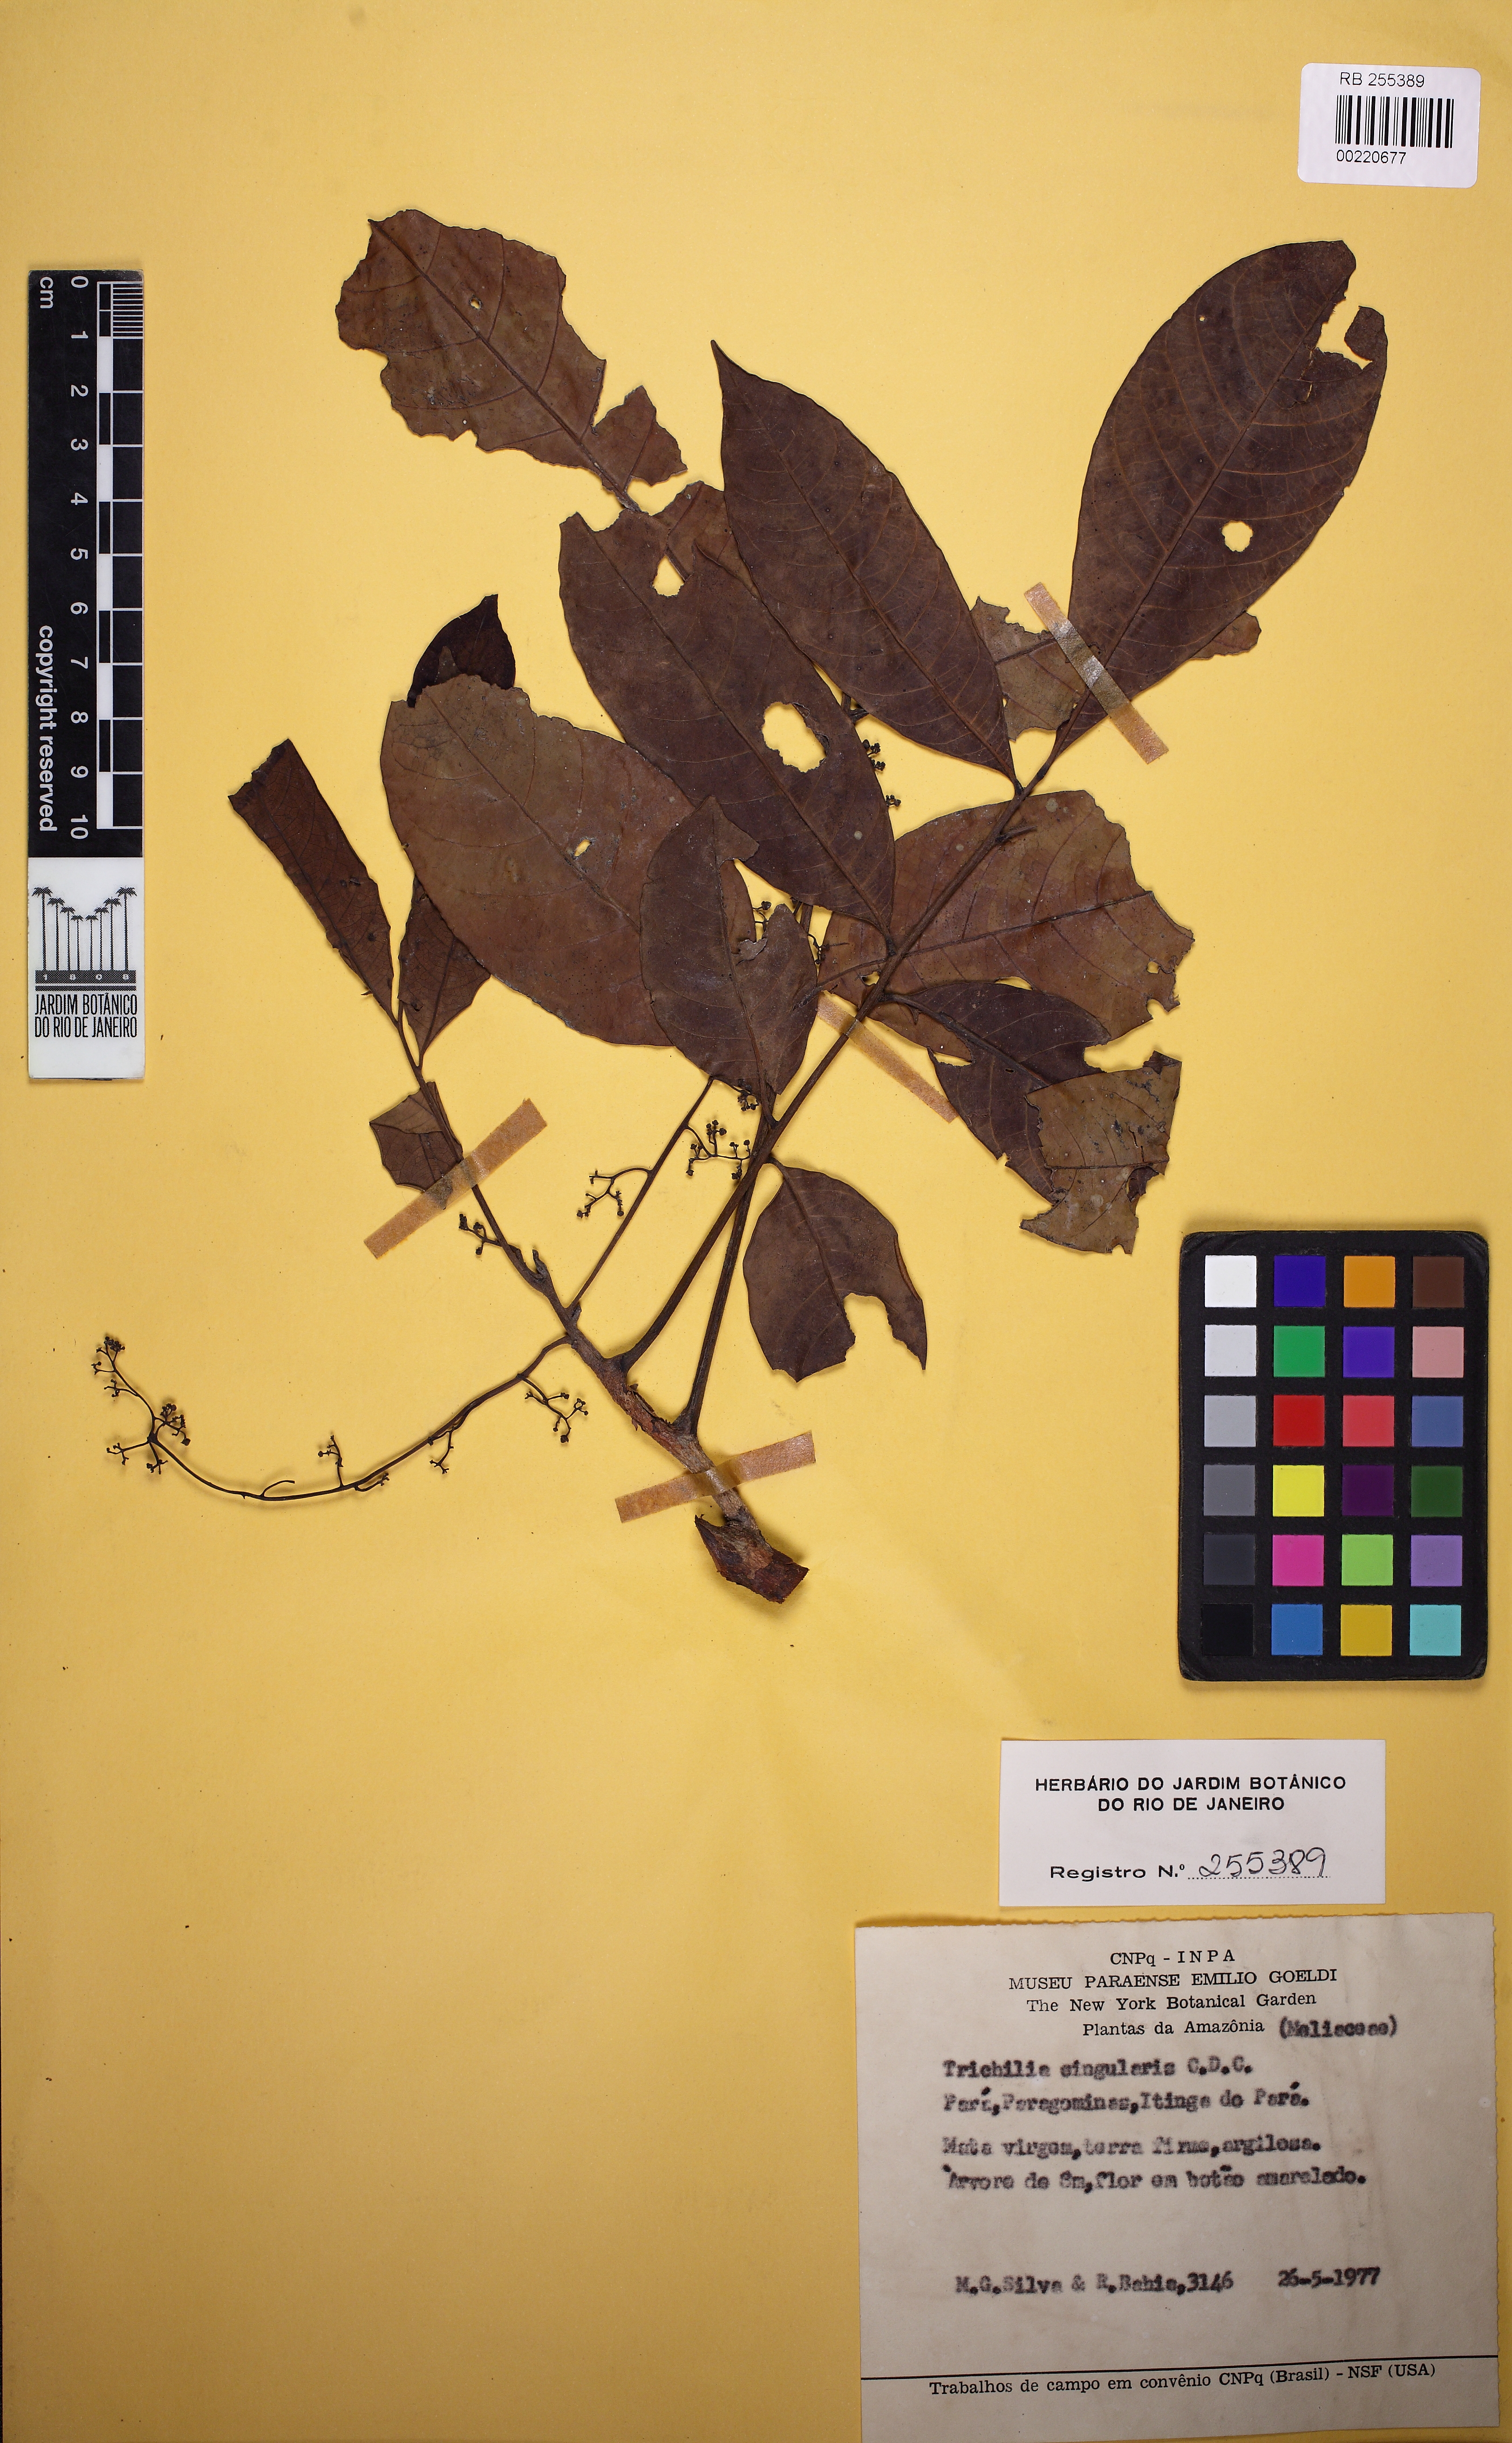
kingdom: Plantae
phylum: Tracheophyta
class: Magnoliopsida
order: Sapindales
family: Meliaceae
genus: Trichilia
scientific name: Trichilia singularis
